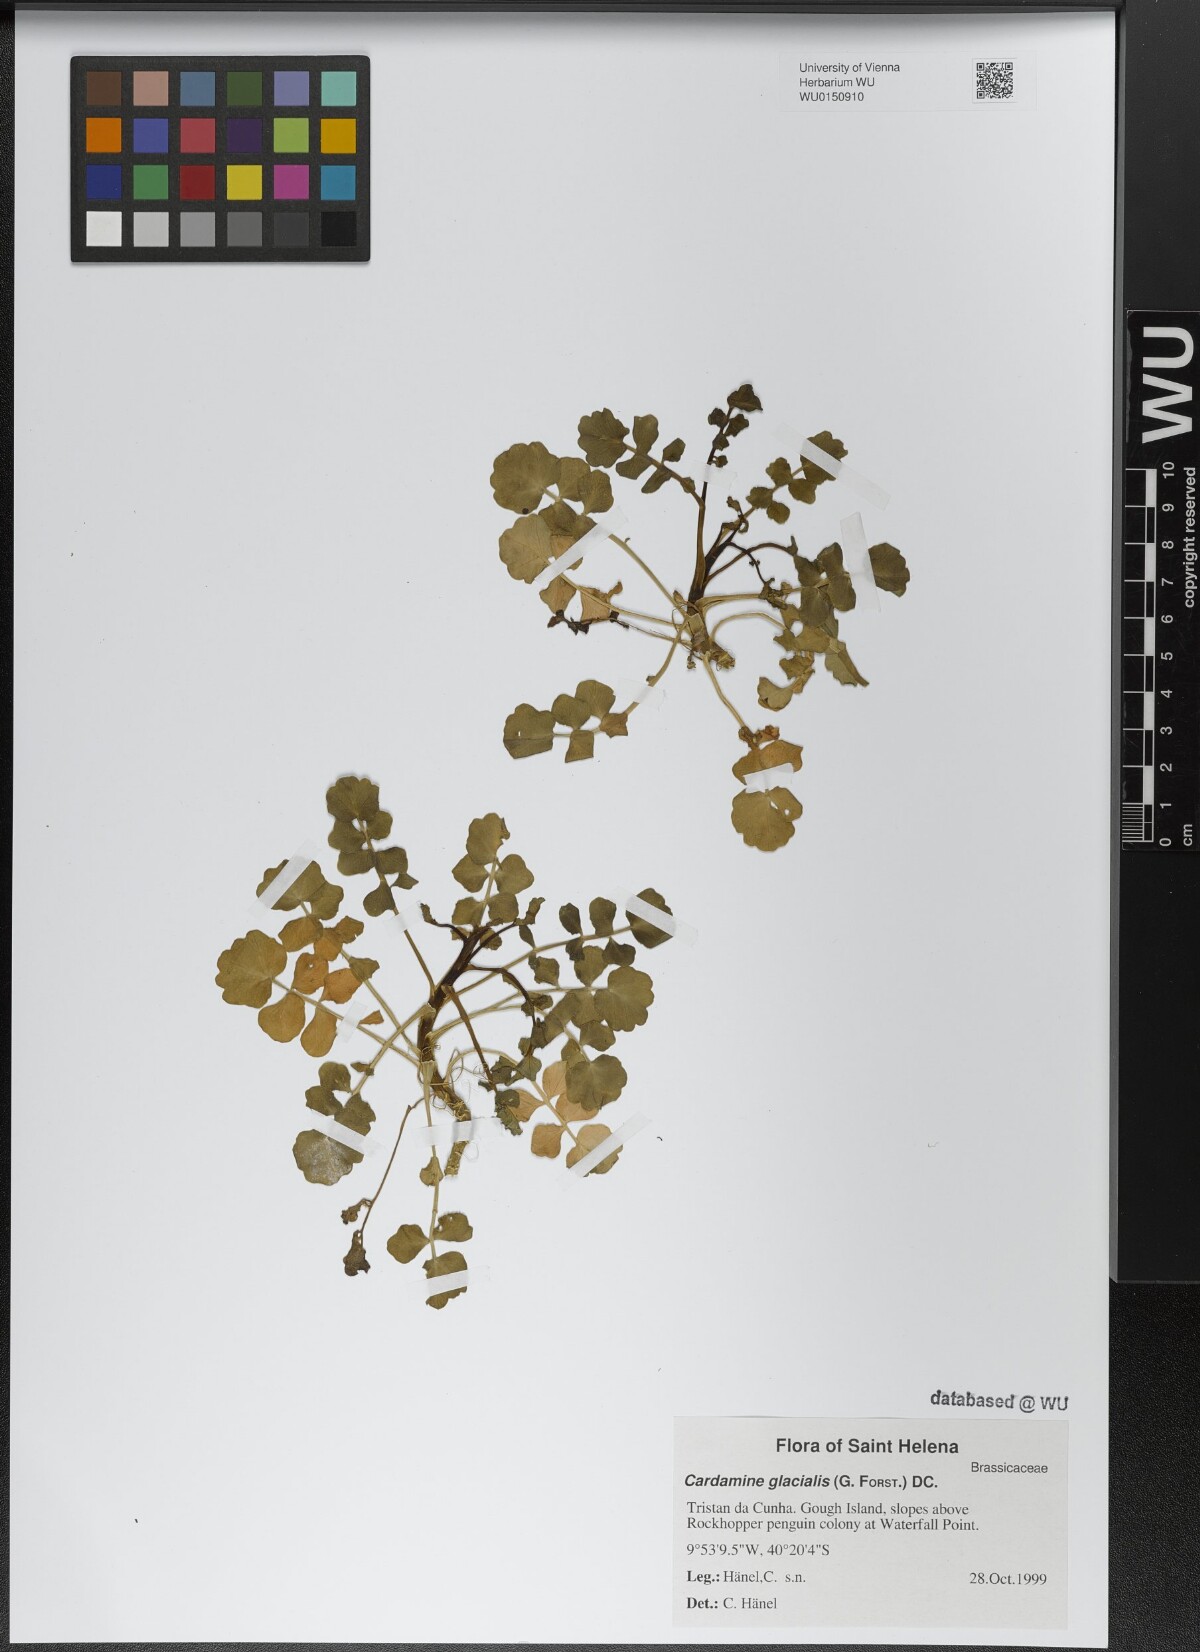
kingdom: Plantae
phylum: Tracheophyta
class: Magnoliopsida
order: Brassicales
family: Brassicaceae
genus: Cardamine
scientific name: Cardamine glacialis
